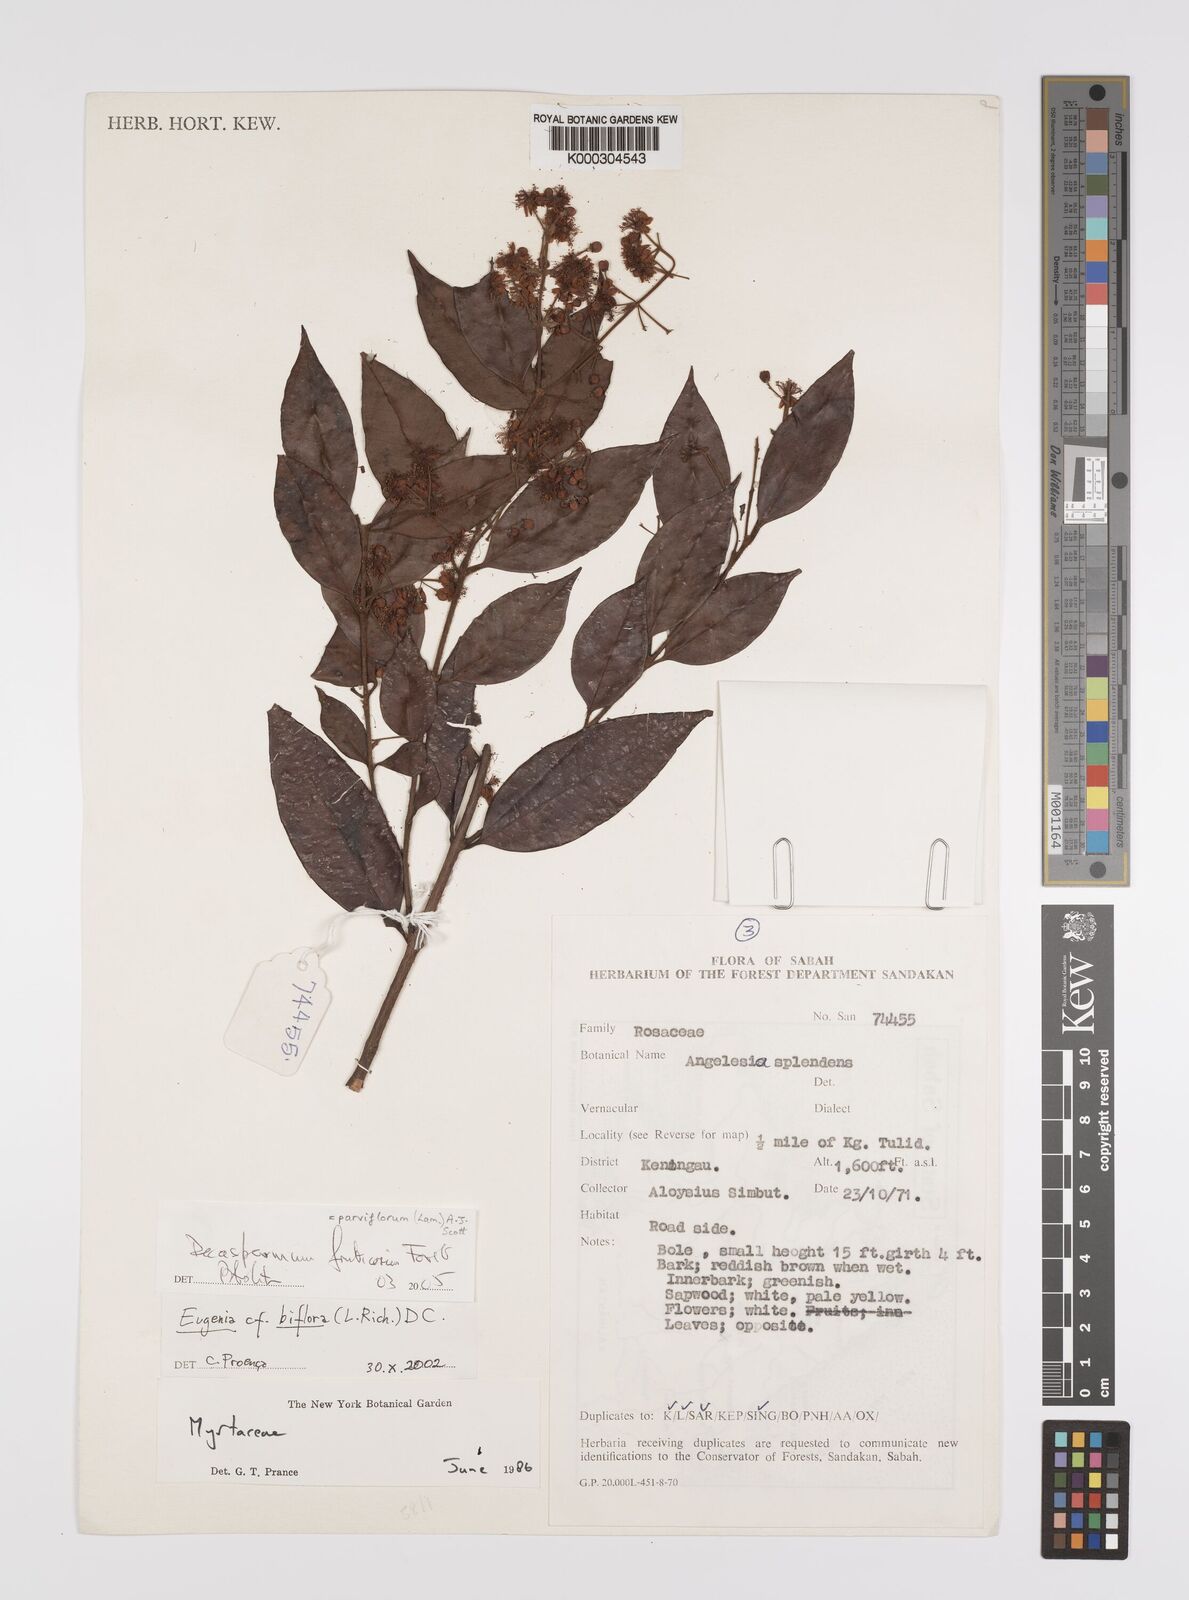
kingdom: Plantae
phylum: Tracheophyta
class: Magnoliopsida
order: Myrtales
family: Myrtaceae
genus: Decaspermum
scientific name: Decaspermum parviflorum
